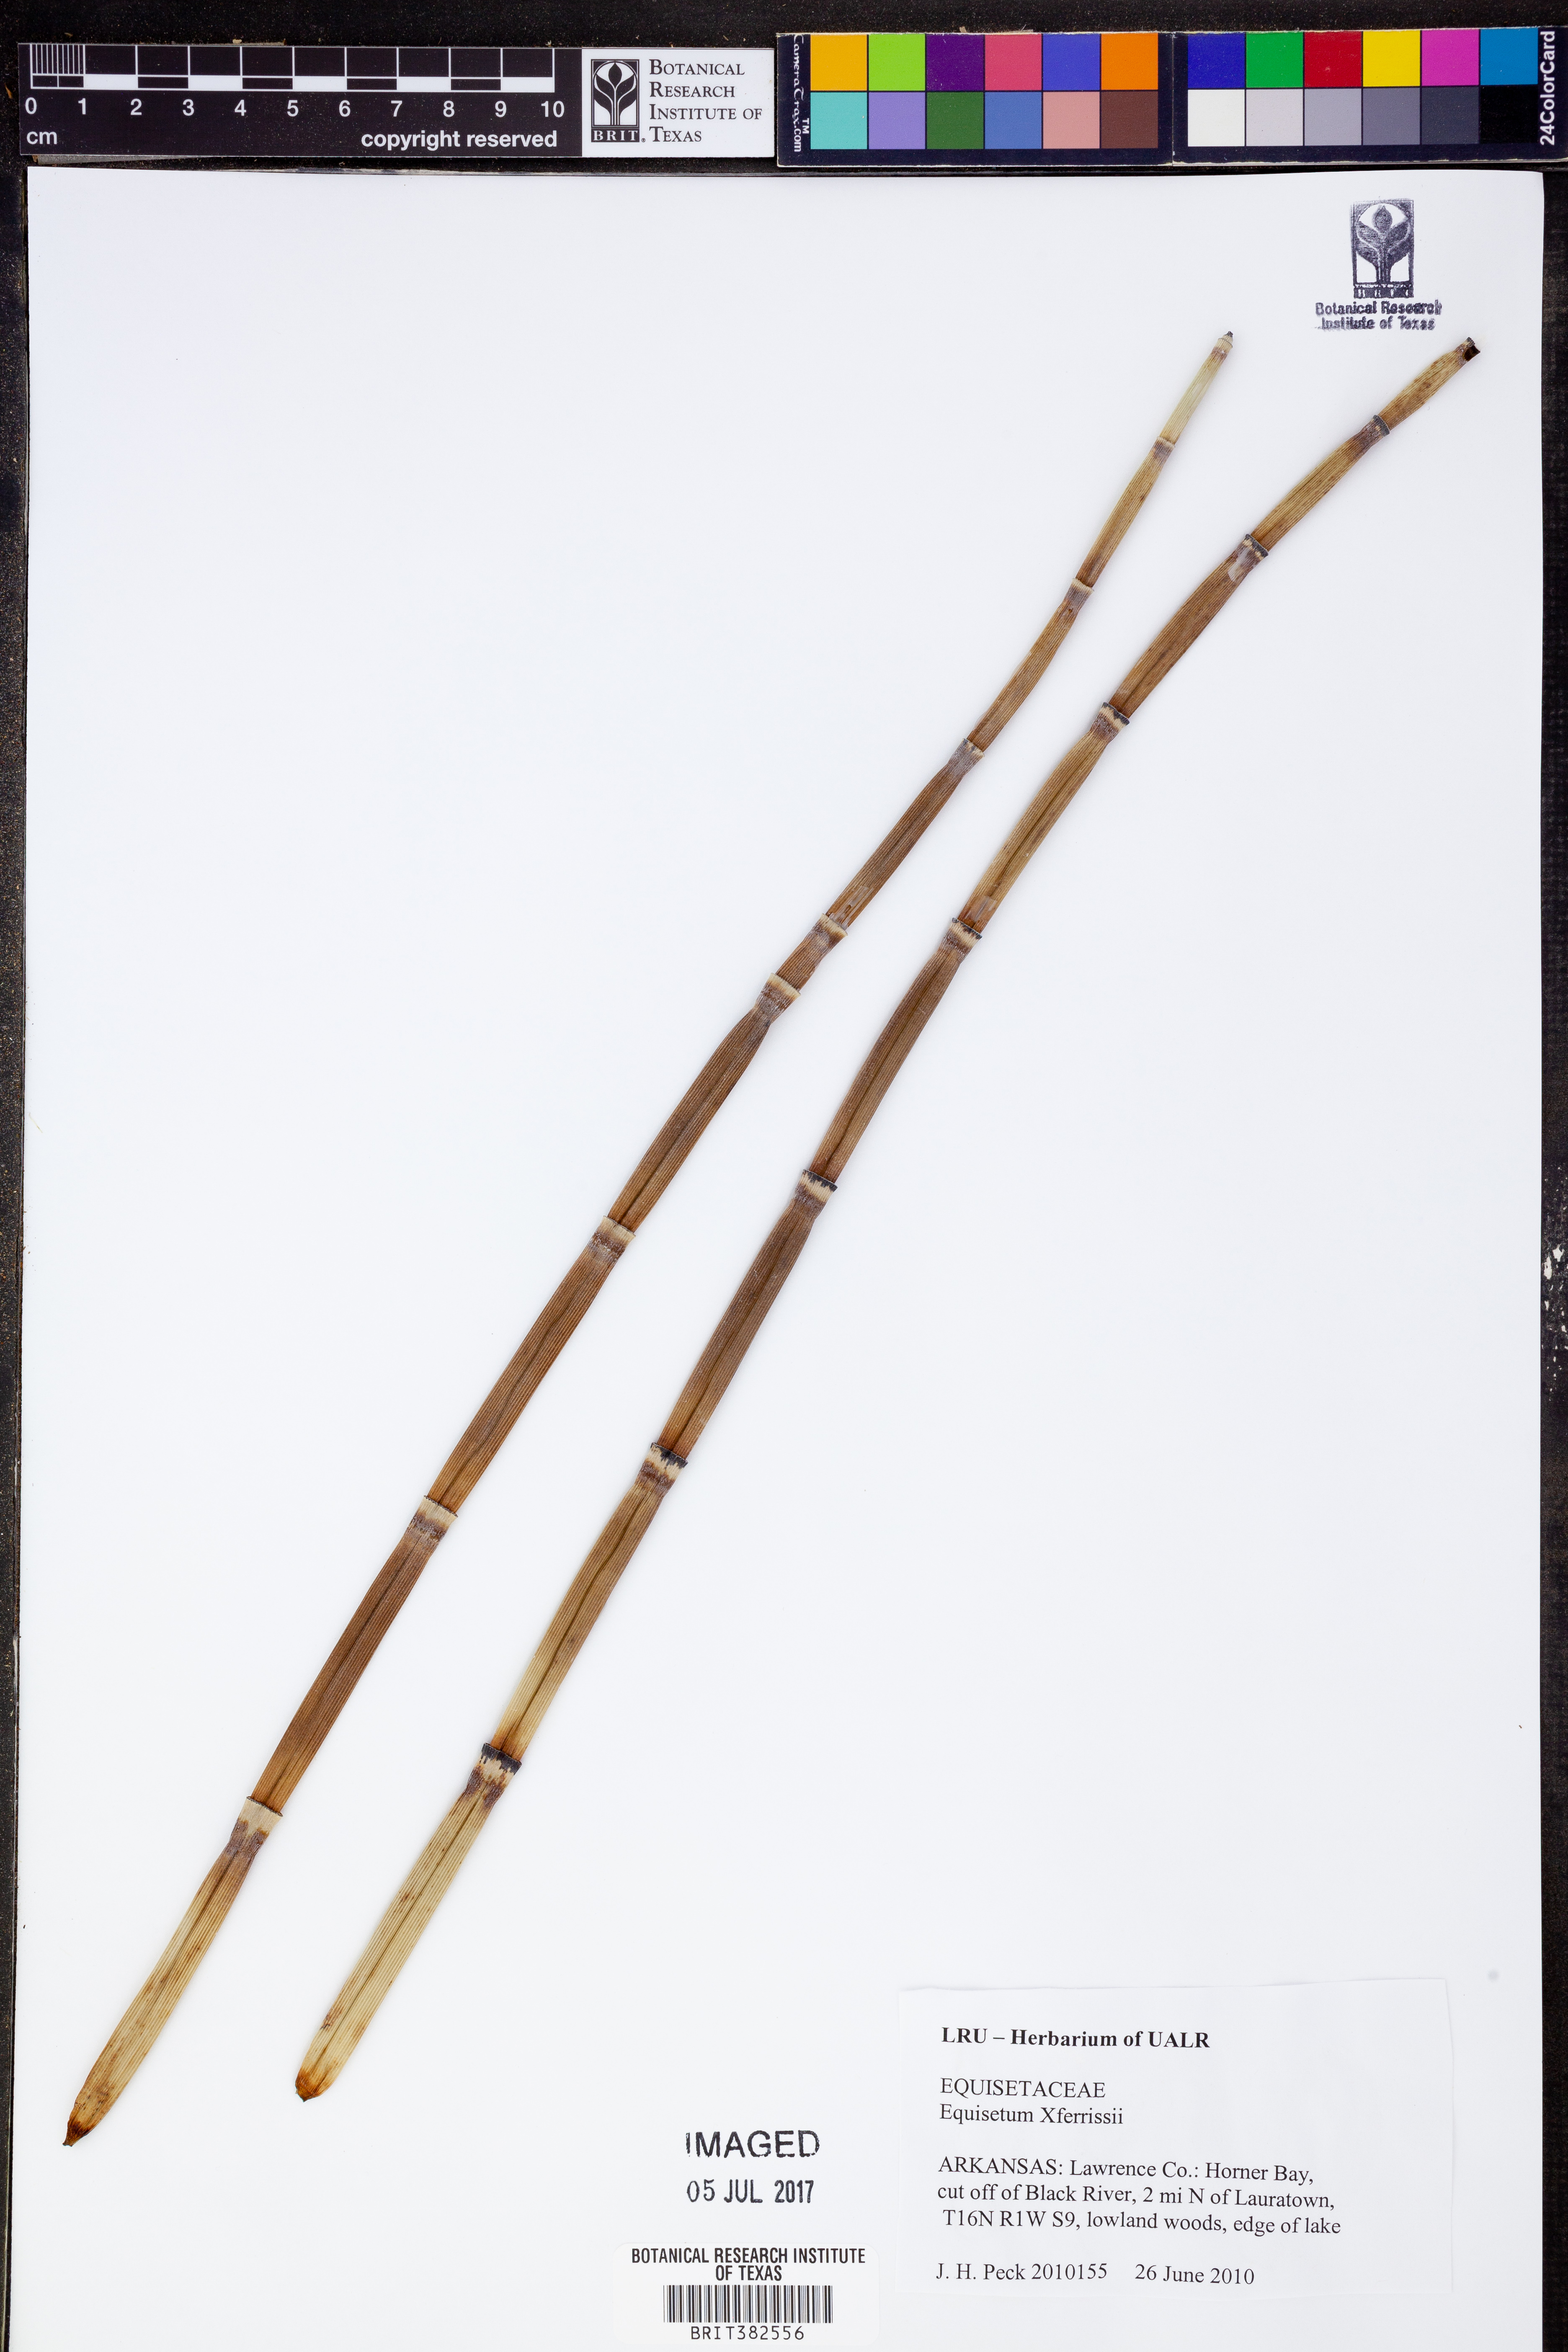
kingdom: Plantae
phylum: Tracheophyta
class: Polypodiopsida
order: Equisetales
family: Equisetaceae
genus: Equisetum
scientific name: Equisetum ferrissii
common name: Ferriss' horsetail
